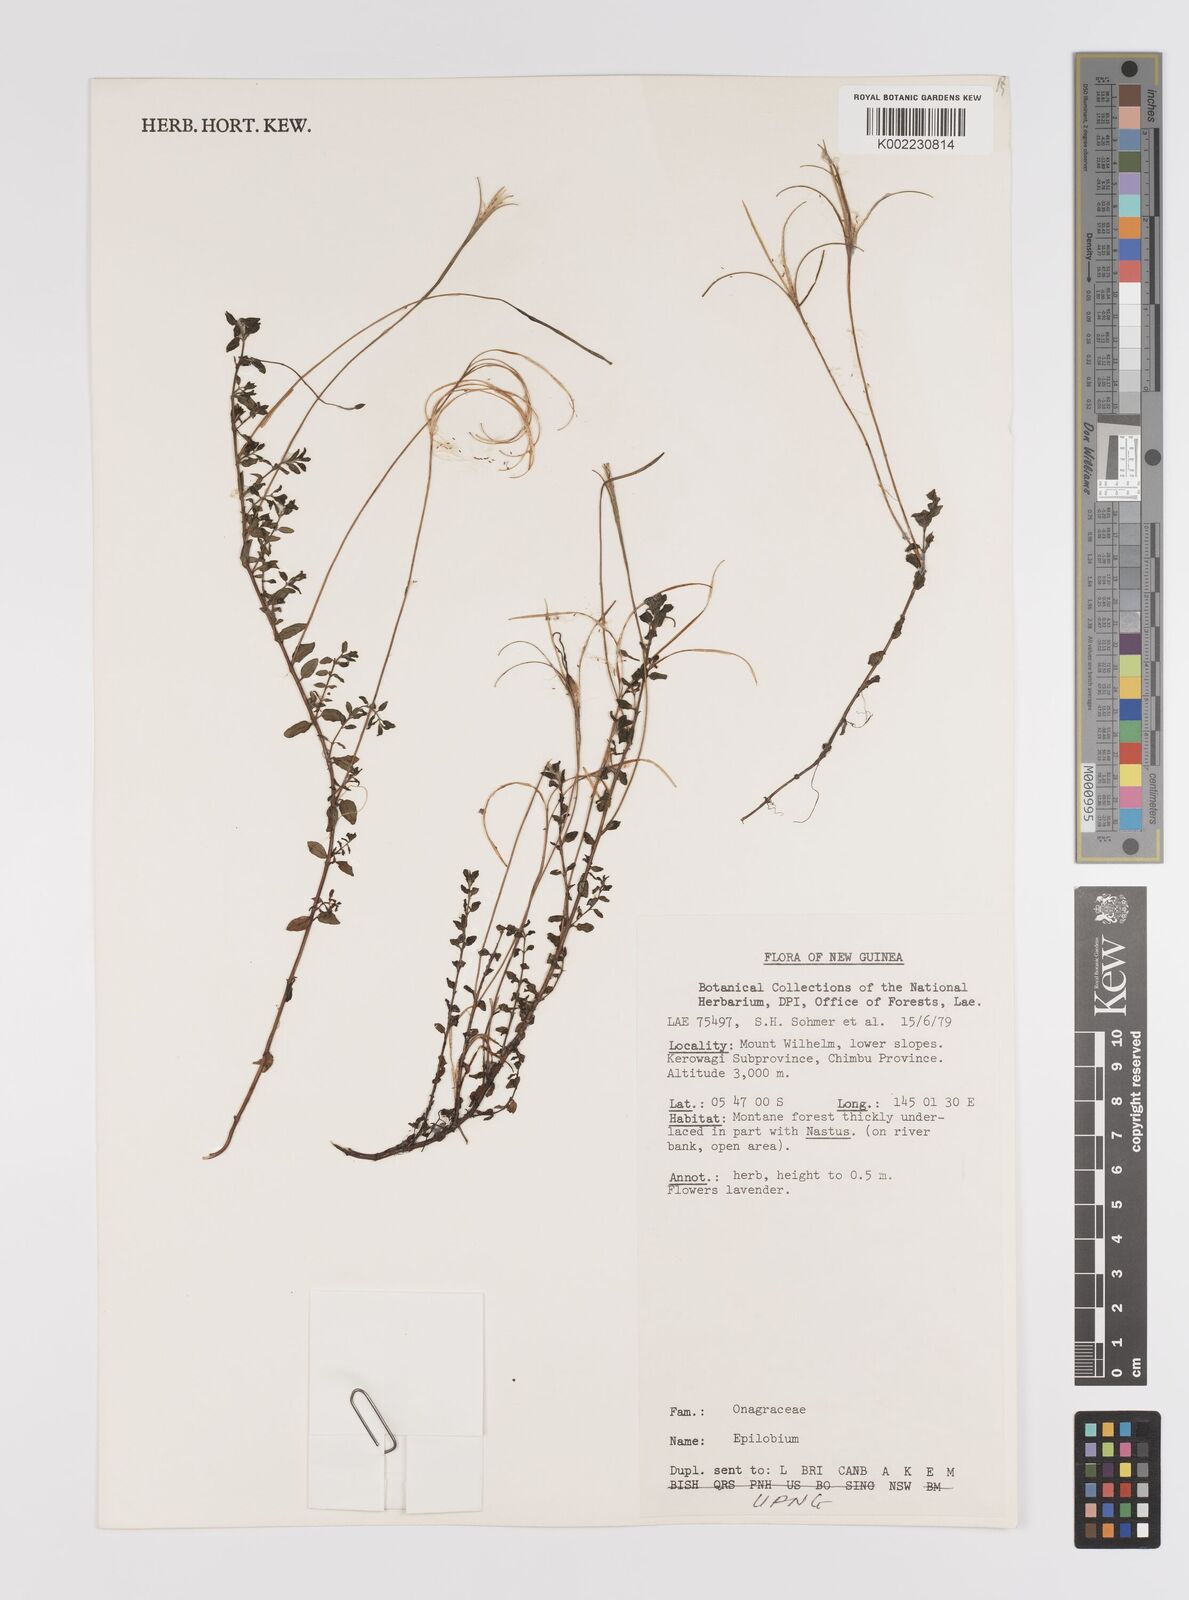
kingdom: Plantae
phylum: Tracheophyta
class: Magnoliopsida
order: Myrtales
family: Onagraceae
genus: Epilobium
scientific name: Epilobium
